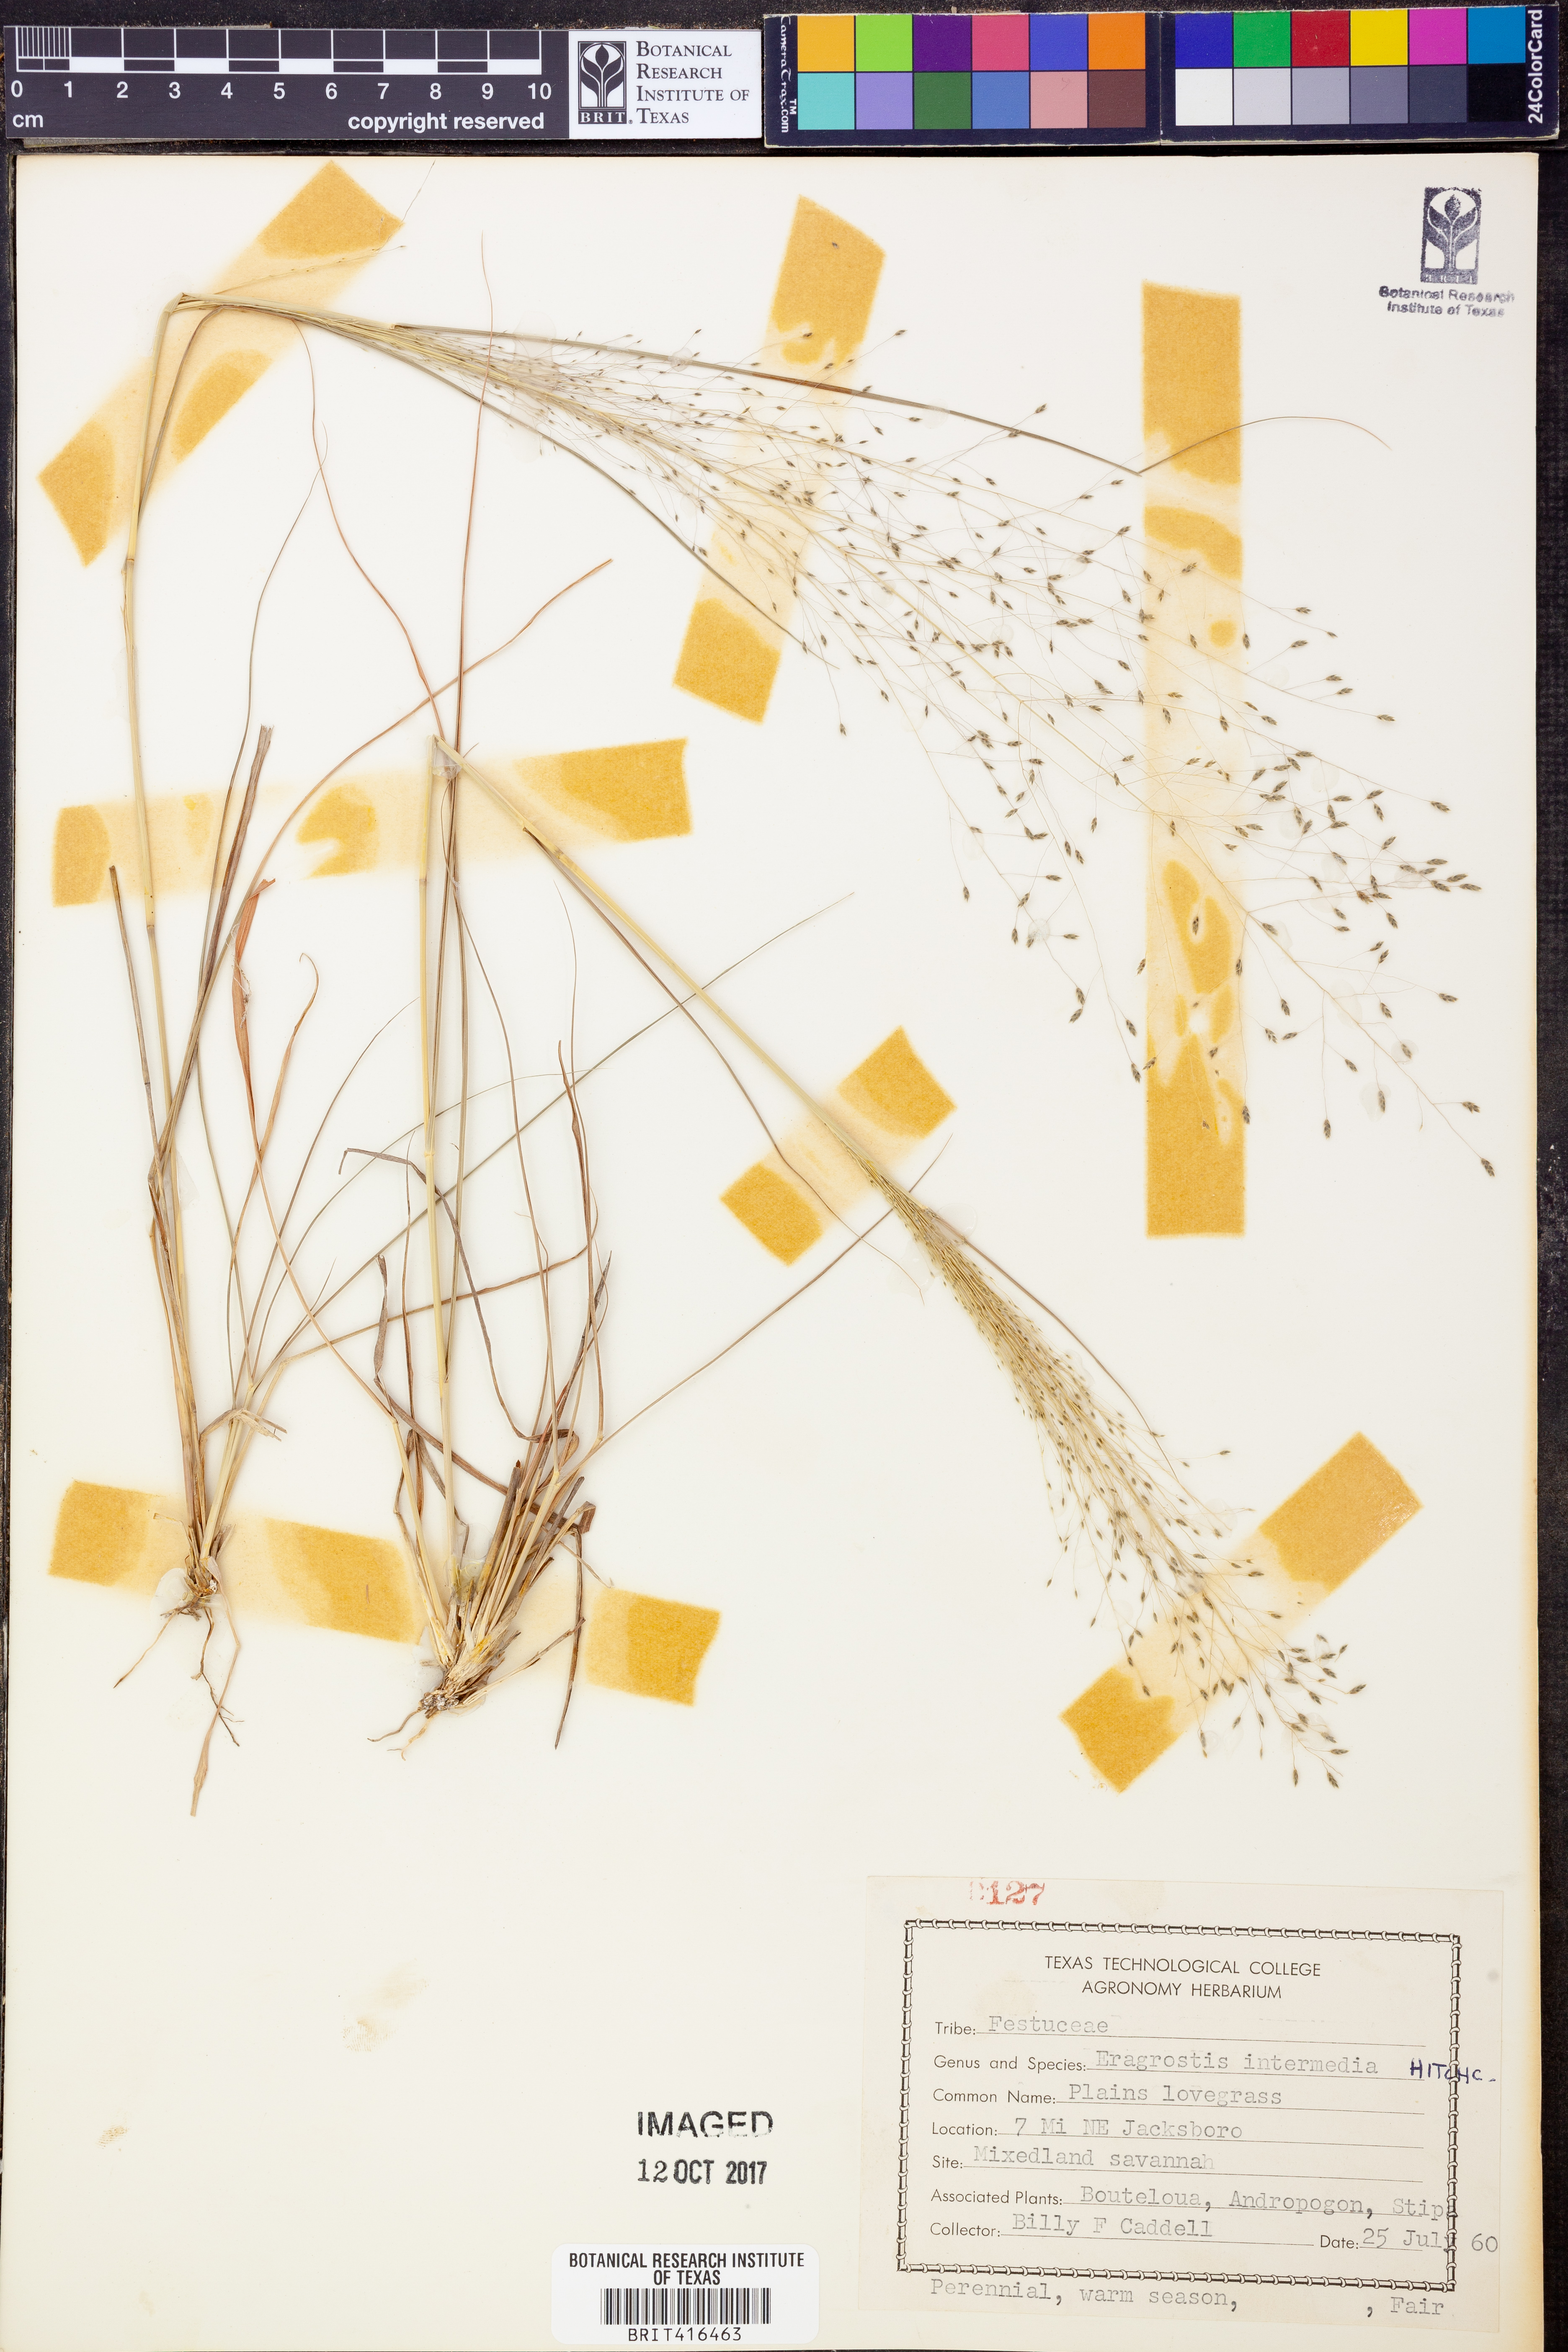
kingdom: Plantae
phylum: Tracheophyta
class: Liliopsida
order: Poales
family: Poaceae
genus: Eragrostis
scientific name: Eragrostis intermedia
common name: Plains love grass
